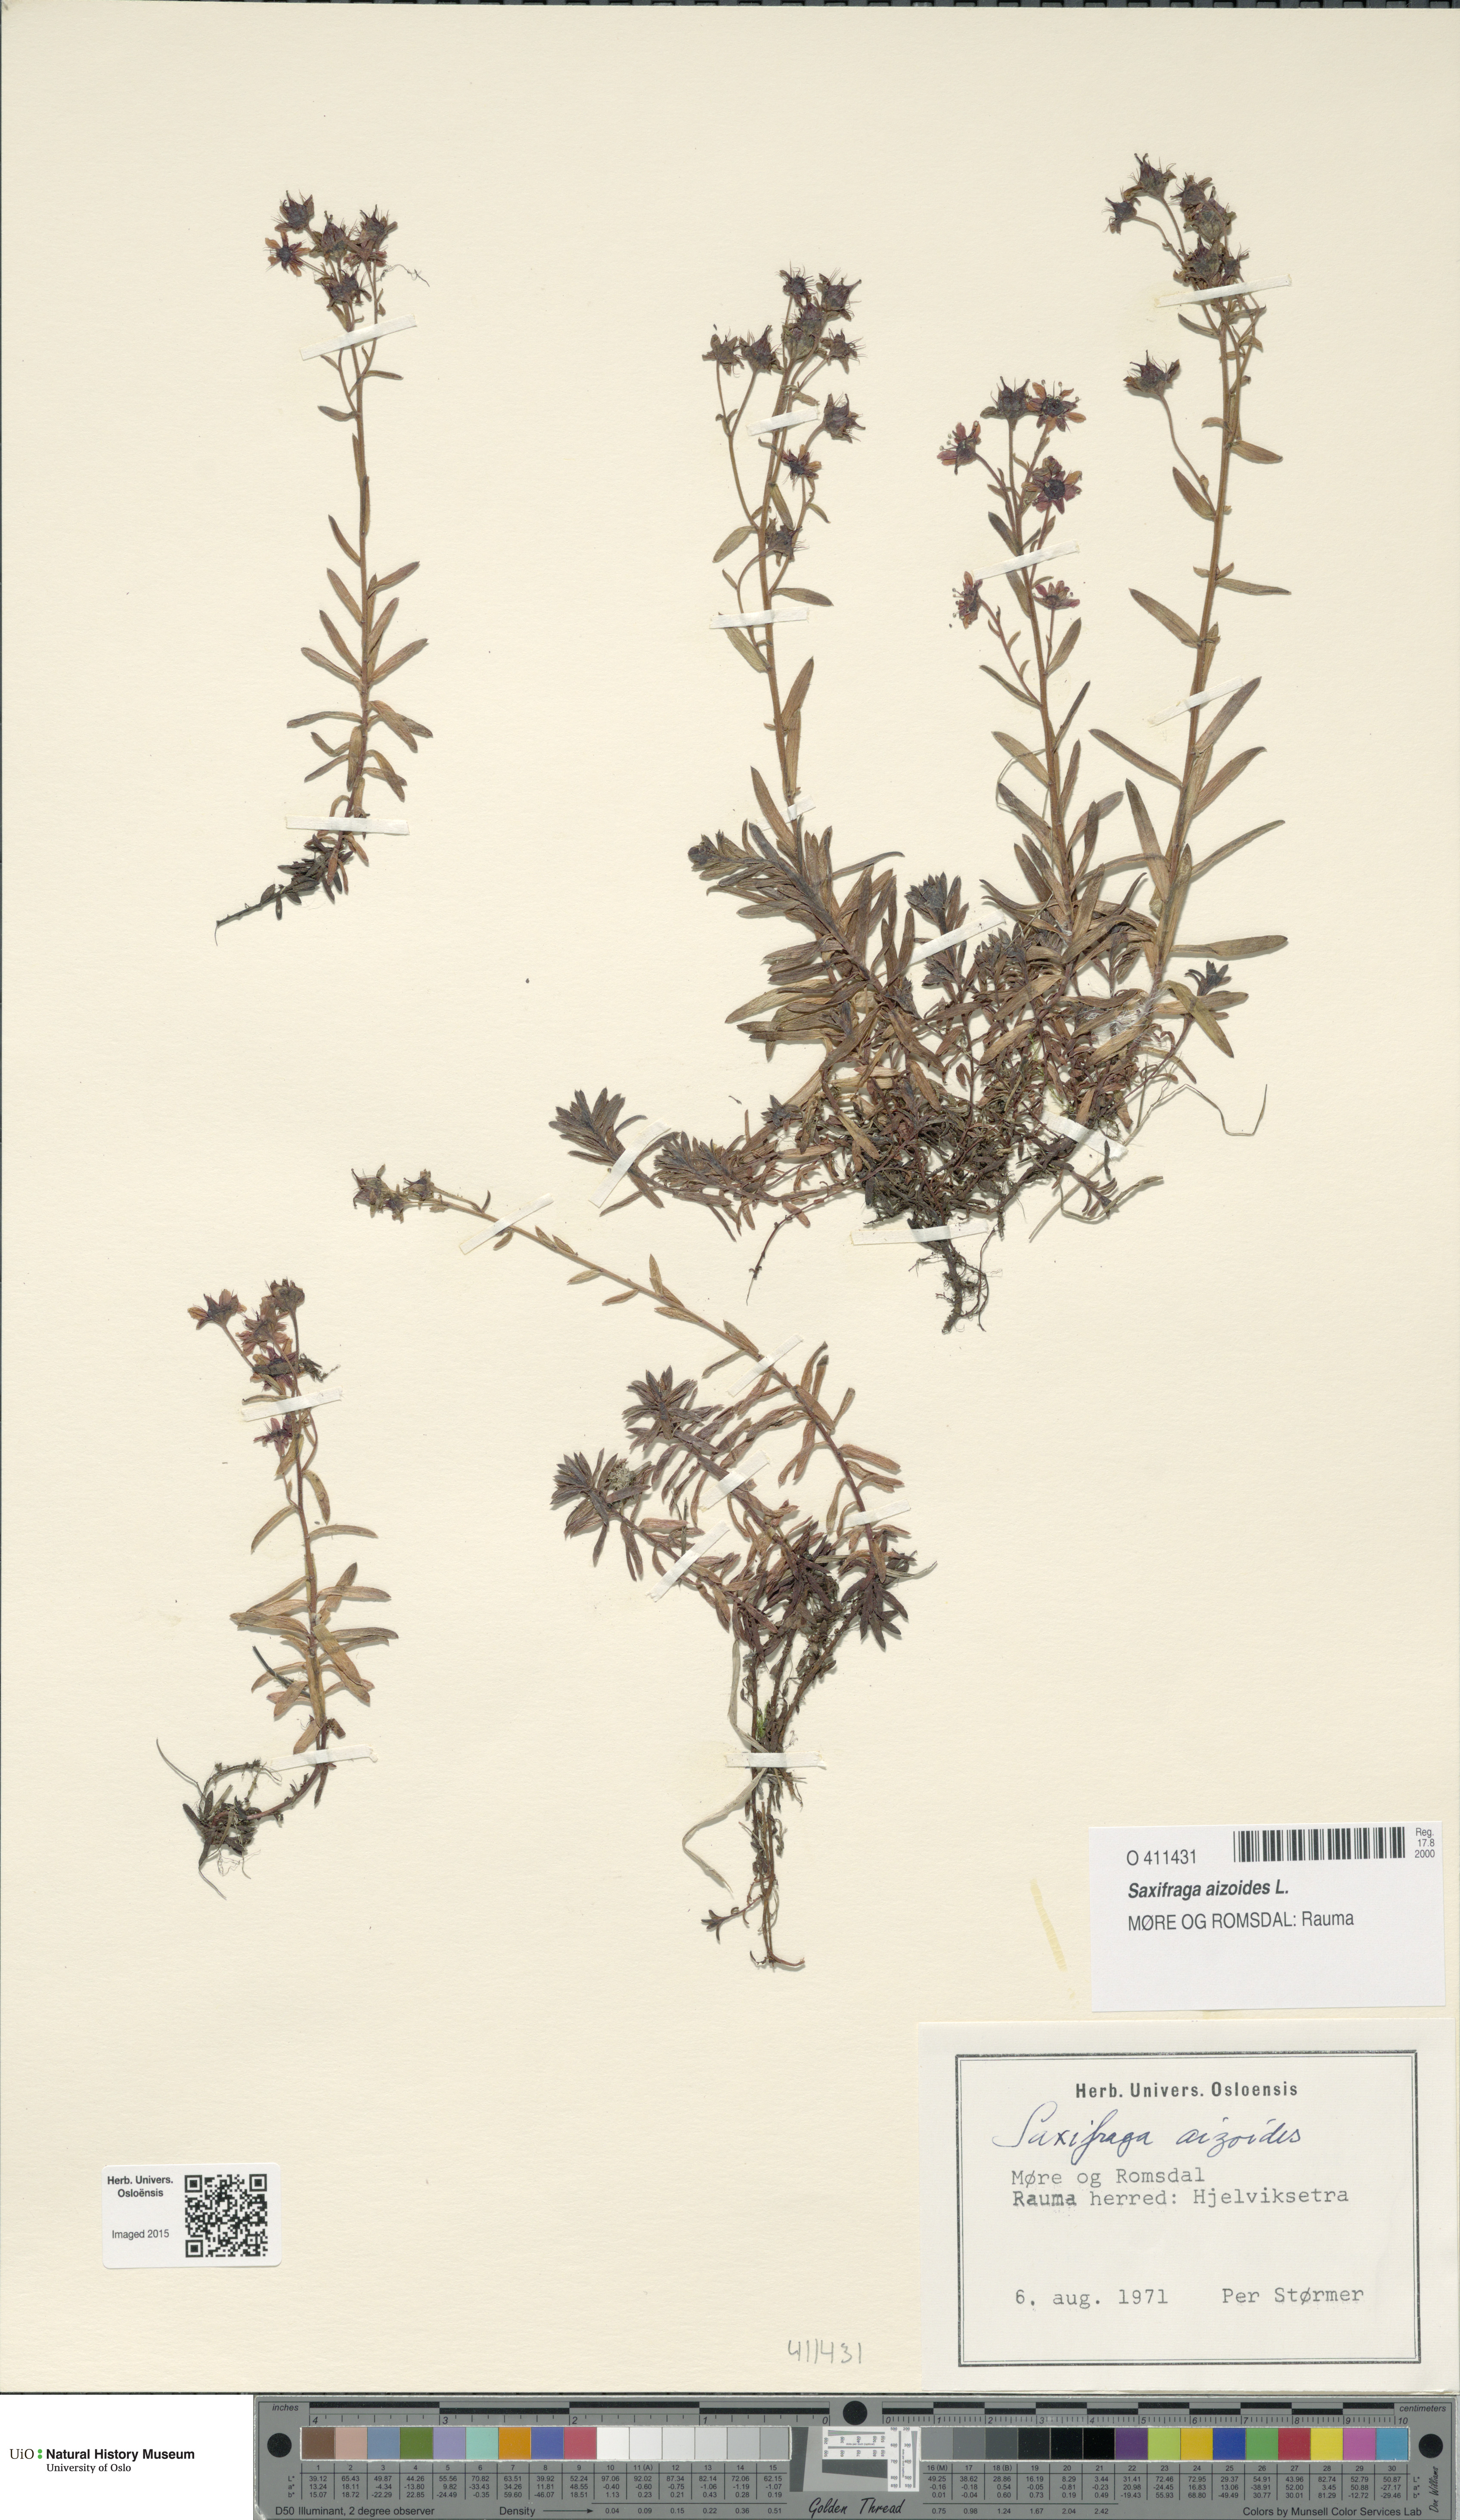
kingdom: Plantae
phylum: Tracheophyta
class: Magnoliopsida
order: Saxifragales
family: Saxifragaceae
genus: Saxifraga
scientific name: Saxifraga aizoides
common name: Yellow mountain saxifrage
